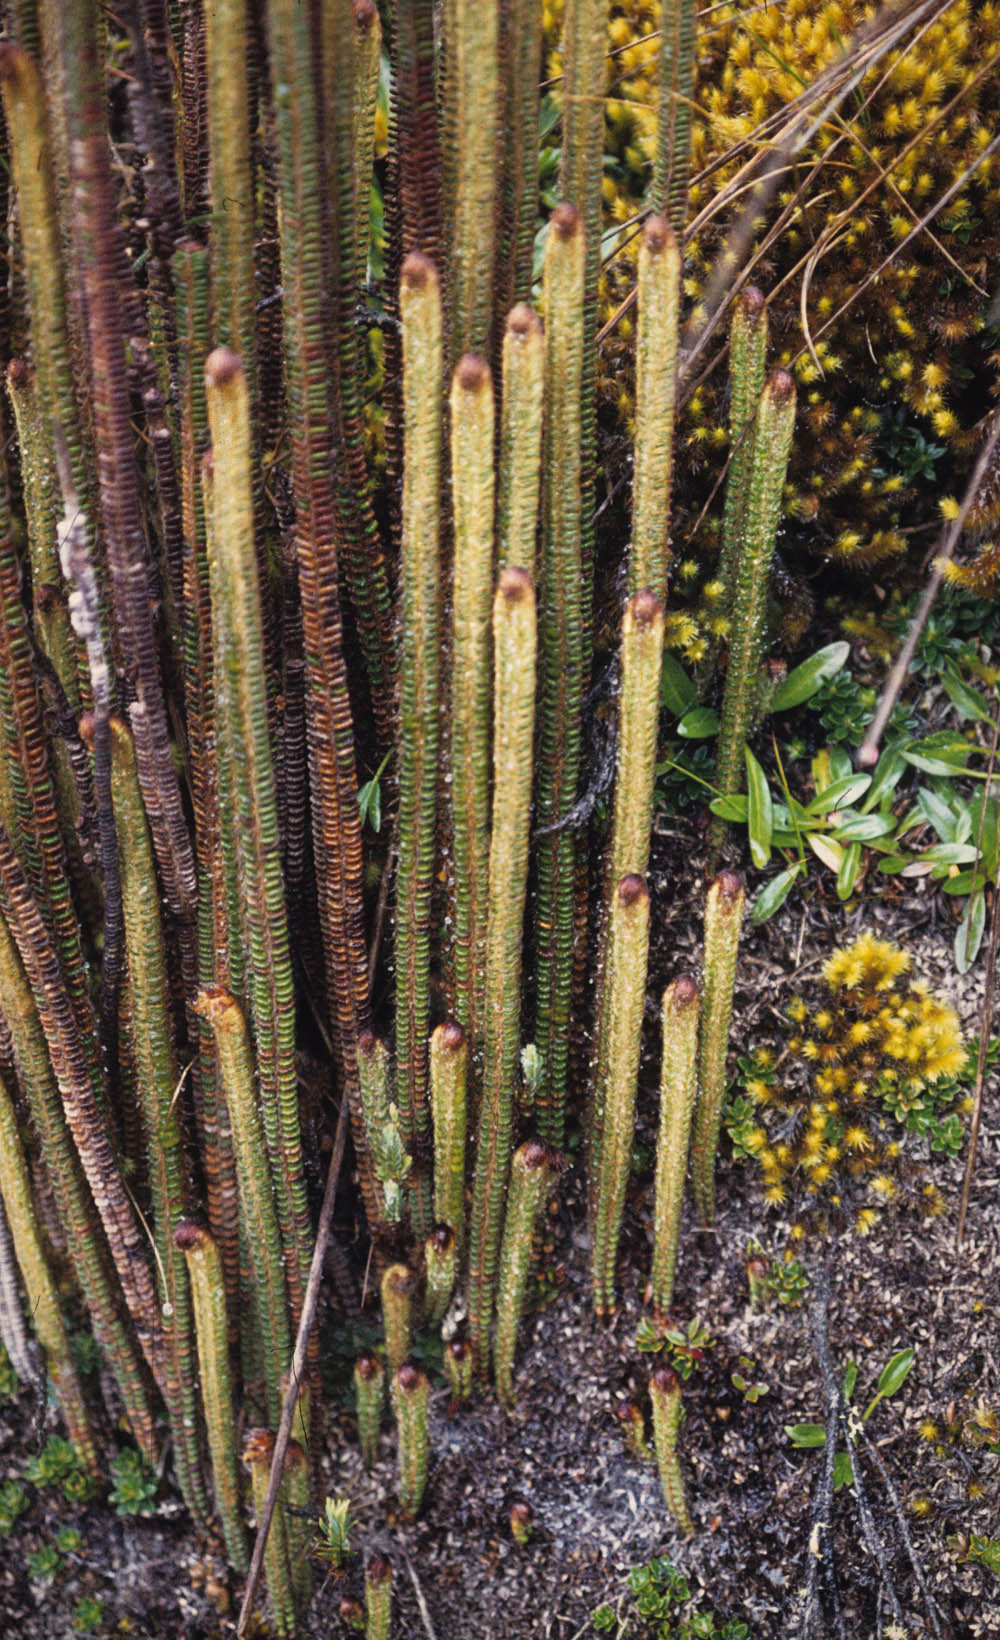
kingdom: Plantae
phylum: Tracheophyta
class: Polypodiopsida
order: Polypodiales
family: Pteridaceae
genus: Jamesonia
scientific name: Jamesonia goudotii
